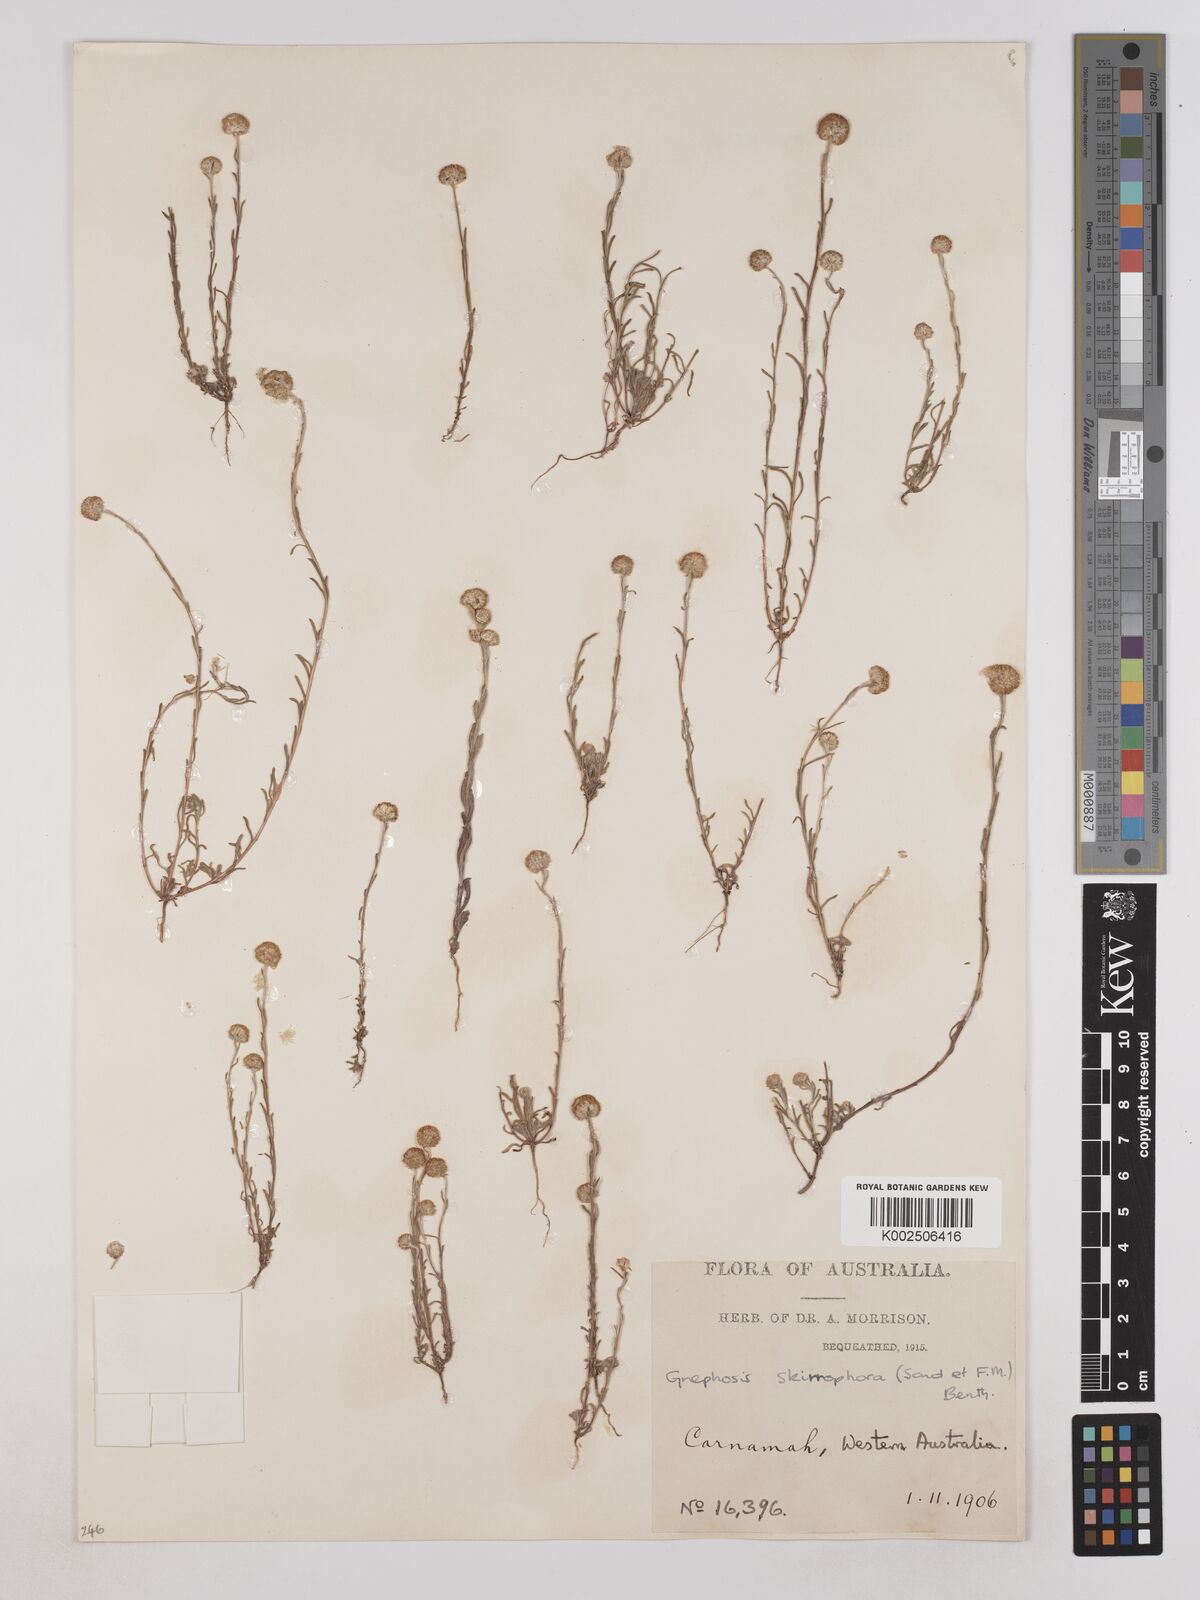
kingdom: Plantae
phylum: Tracheophyta
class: Magnoliopsida
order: Asterales
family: Asteraceae
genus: Trichanthodium
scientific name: Trichanthodium skirrophorum
